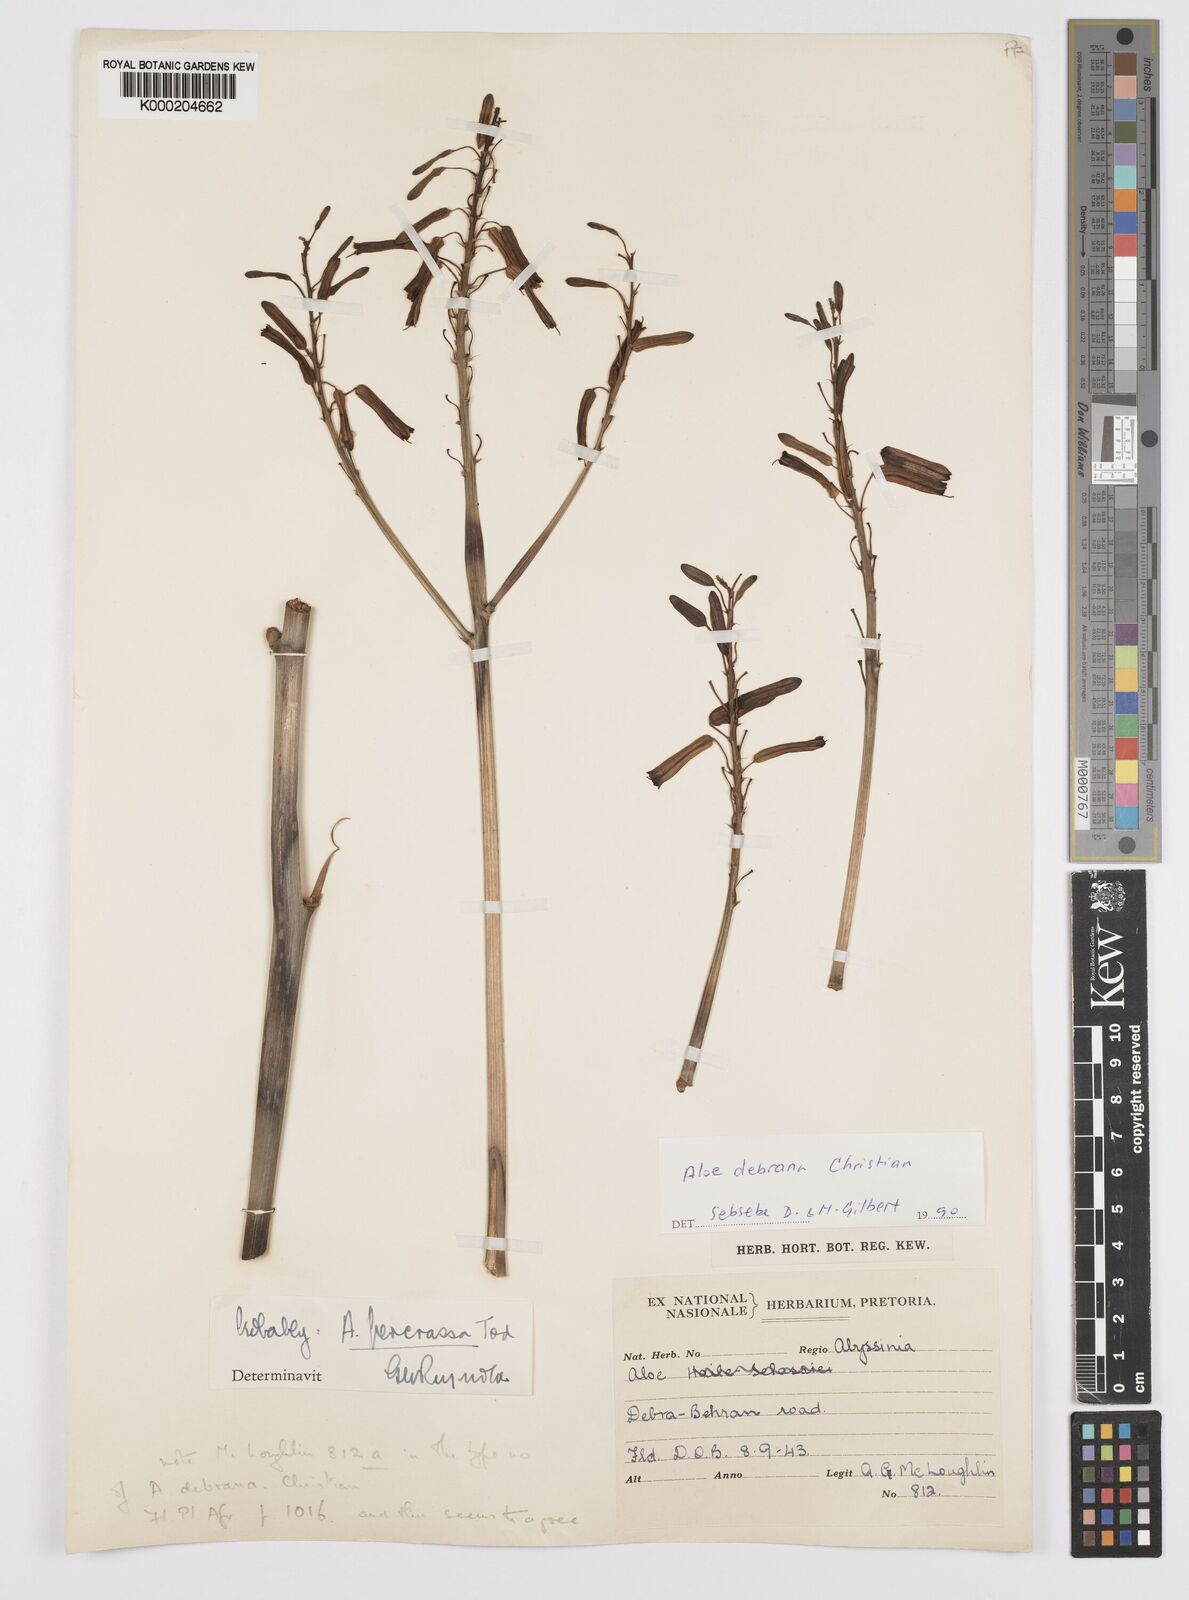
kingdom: Plantae
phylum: Tracheophyta
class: Liliopsida
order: Asparagales
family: Asphodelaceae
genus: Aloe
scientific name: Aloe debrana
